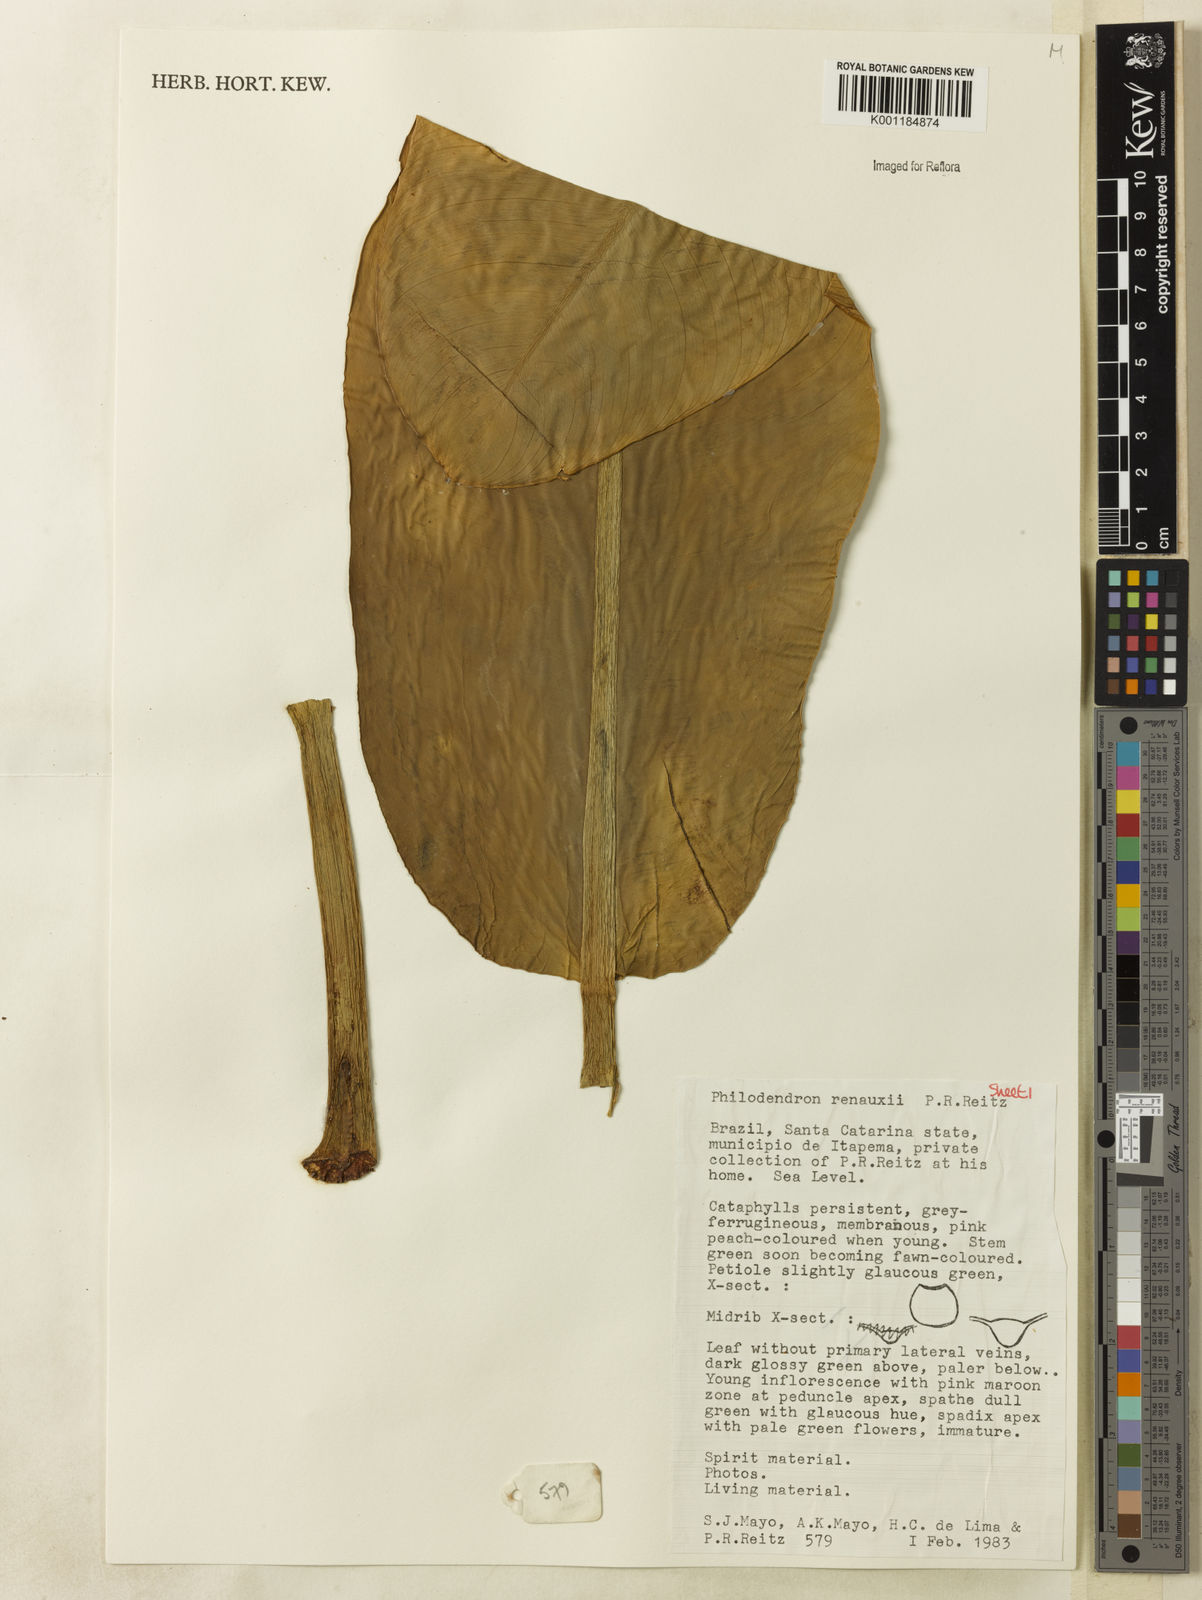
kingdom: Plantae
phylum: Tracheophyta
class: Liliopsida
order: Alismatales
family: Araceae
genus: Philodendron
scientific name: Philodendron renauxii
